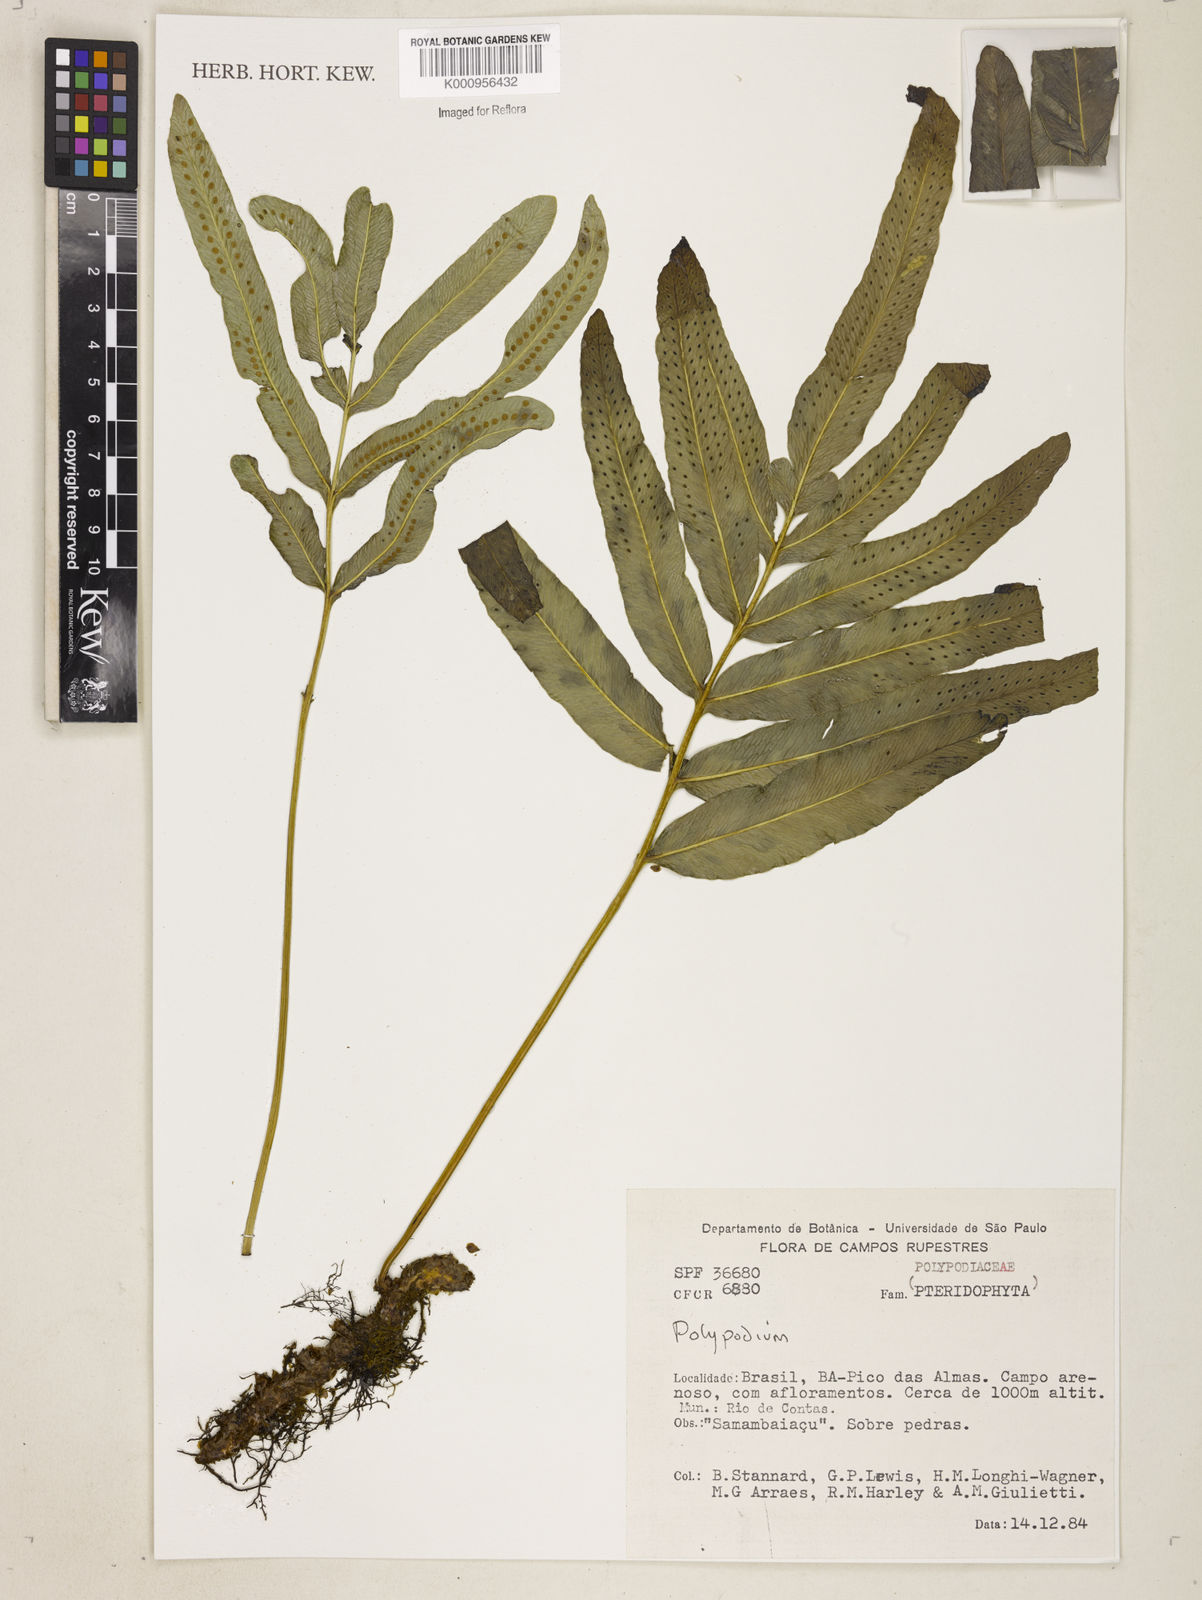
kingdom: Plantae
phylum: Tracheophyta
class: Polypodiopsida
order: Polypodiales
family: Polypodiaceae
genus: Polypodium
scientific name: Polypodium
